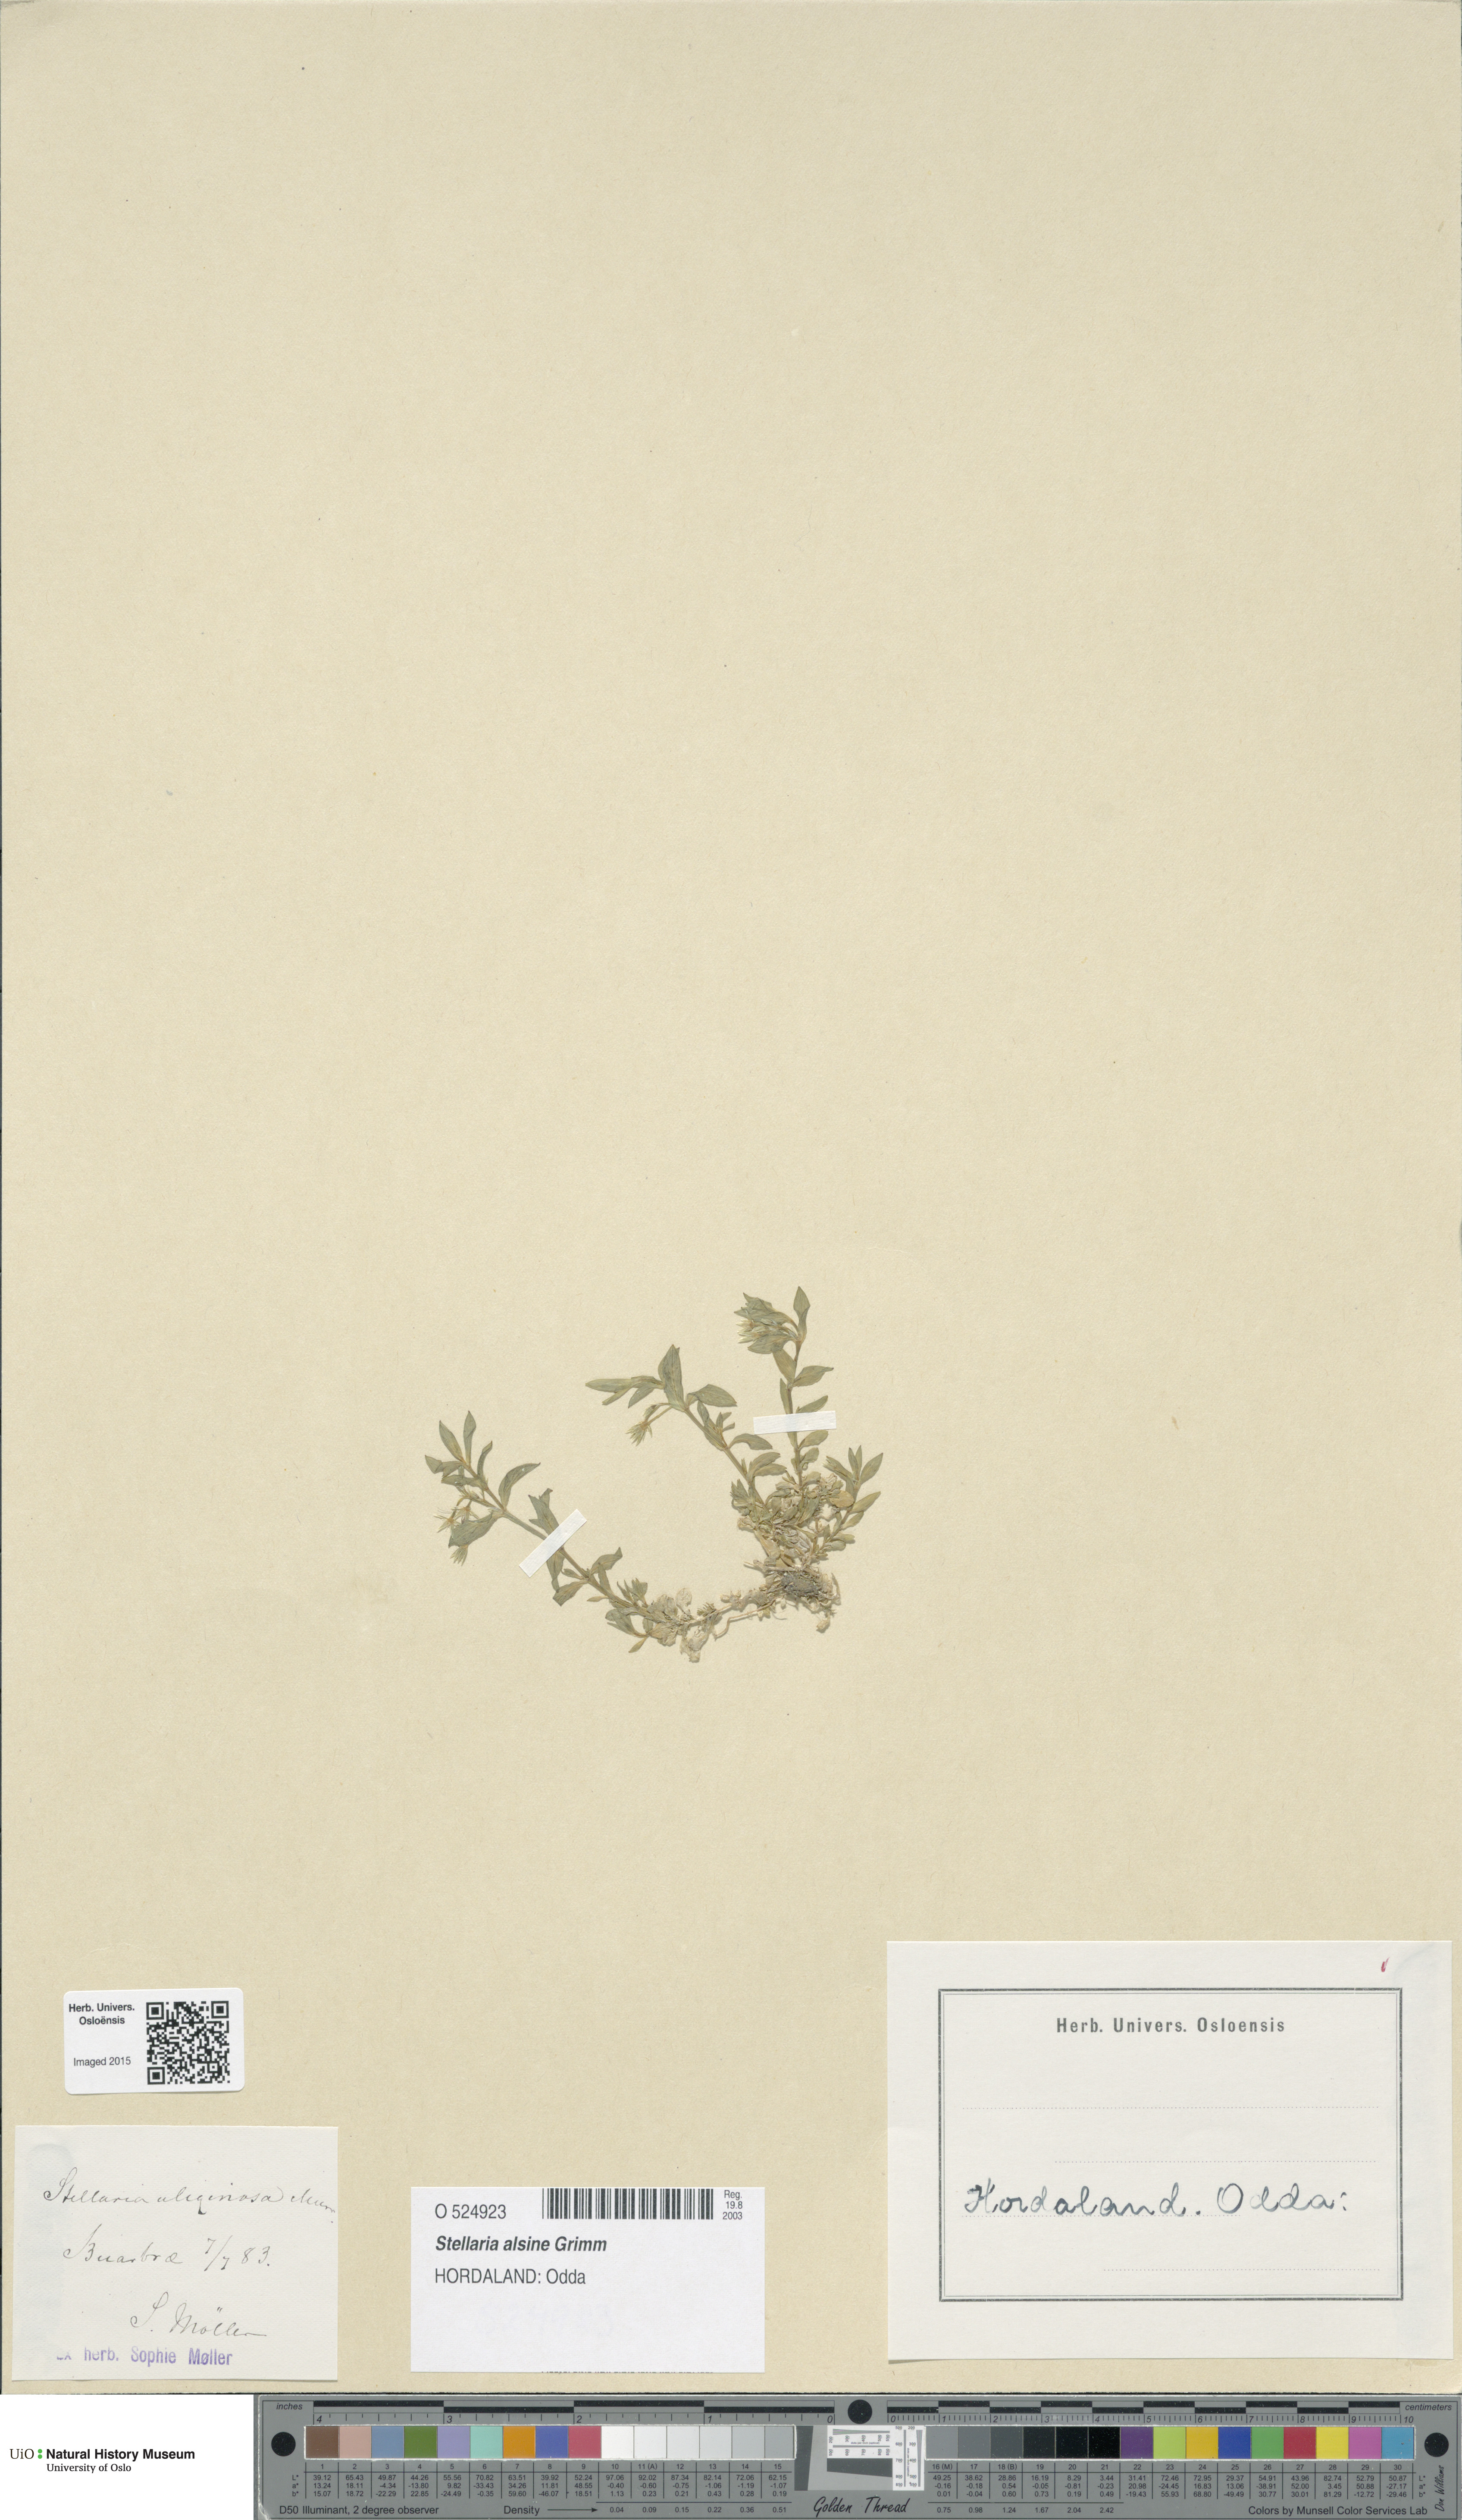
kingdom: Plantae
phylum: Tracheophyta
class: Magnoliopsida
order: Caryophyllales
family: Caryophyllaceae
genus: Stellaria
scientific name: Stellaria alsine
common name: Bog stitchwort
